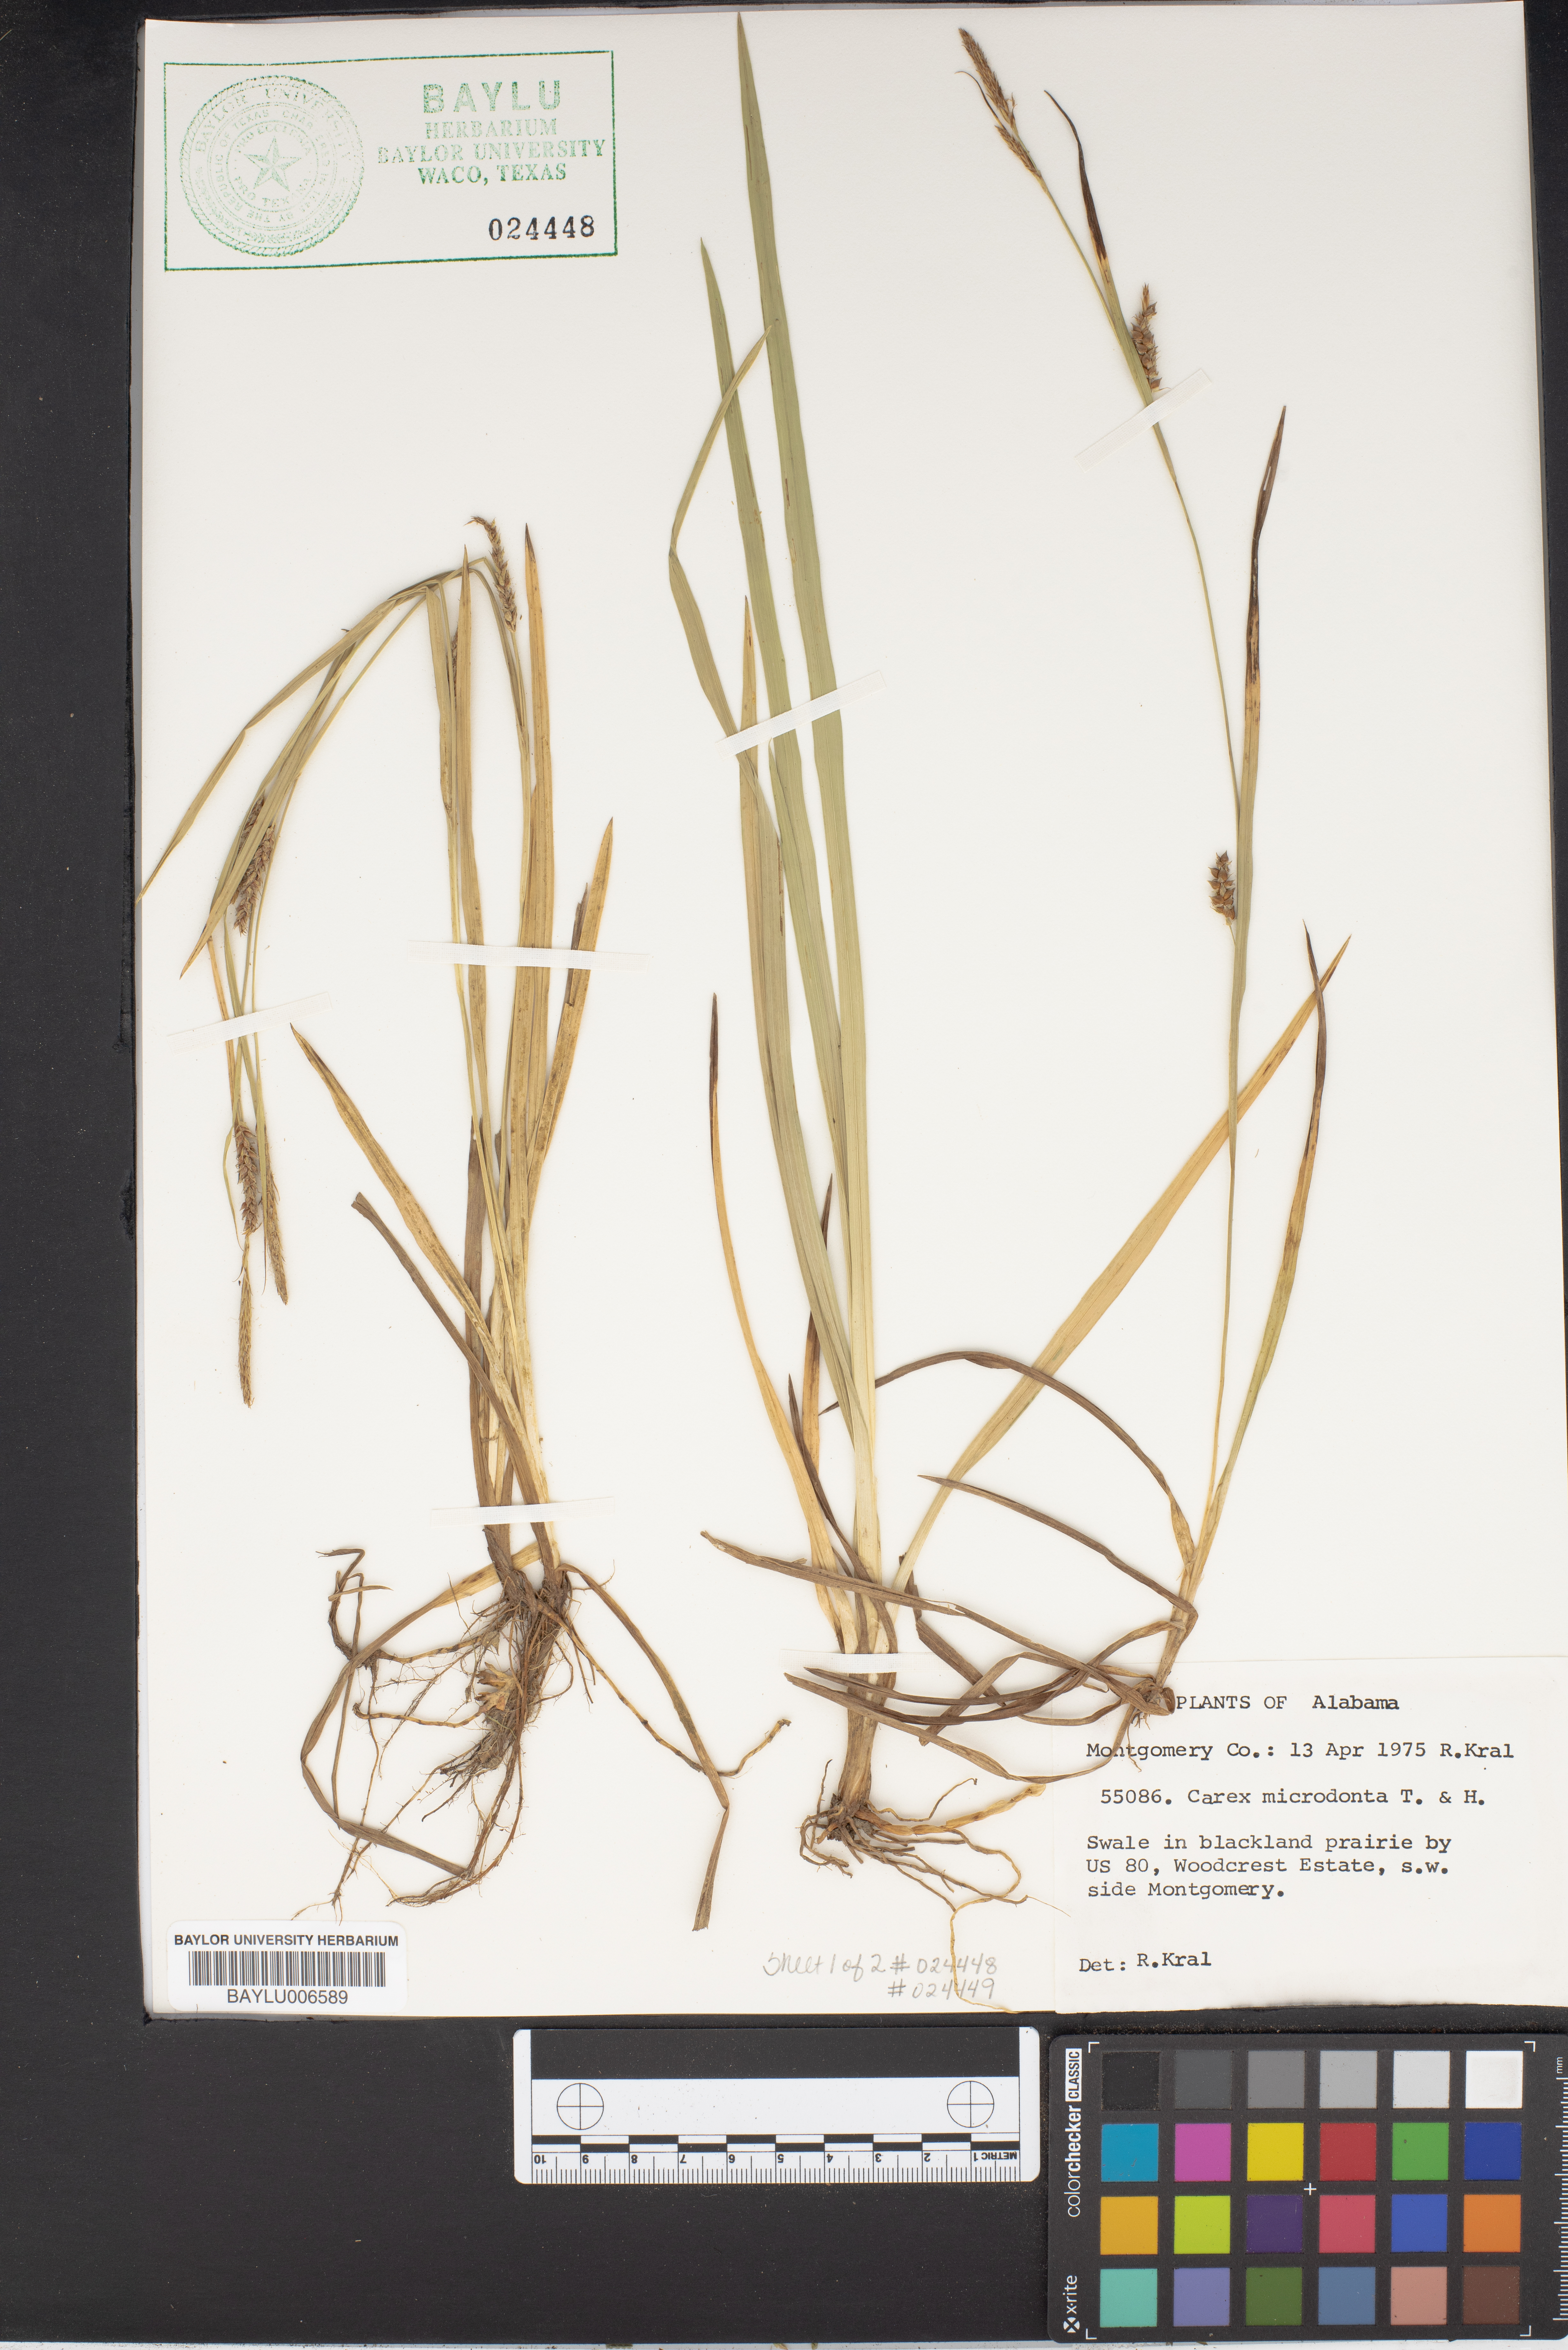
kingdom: Plantae
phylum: Tracheophyta
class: Liliopsida
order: Poales
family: Cyperaceae
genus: Carex
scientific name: Carex microdonta
